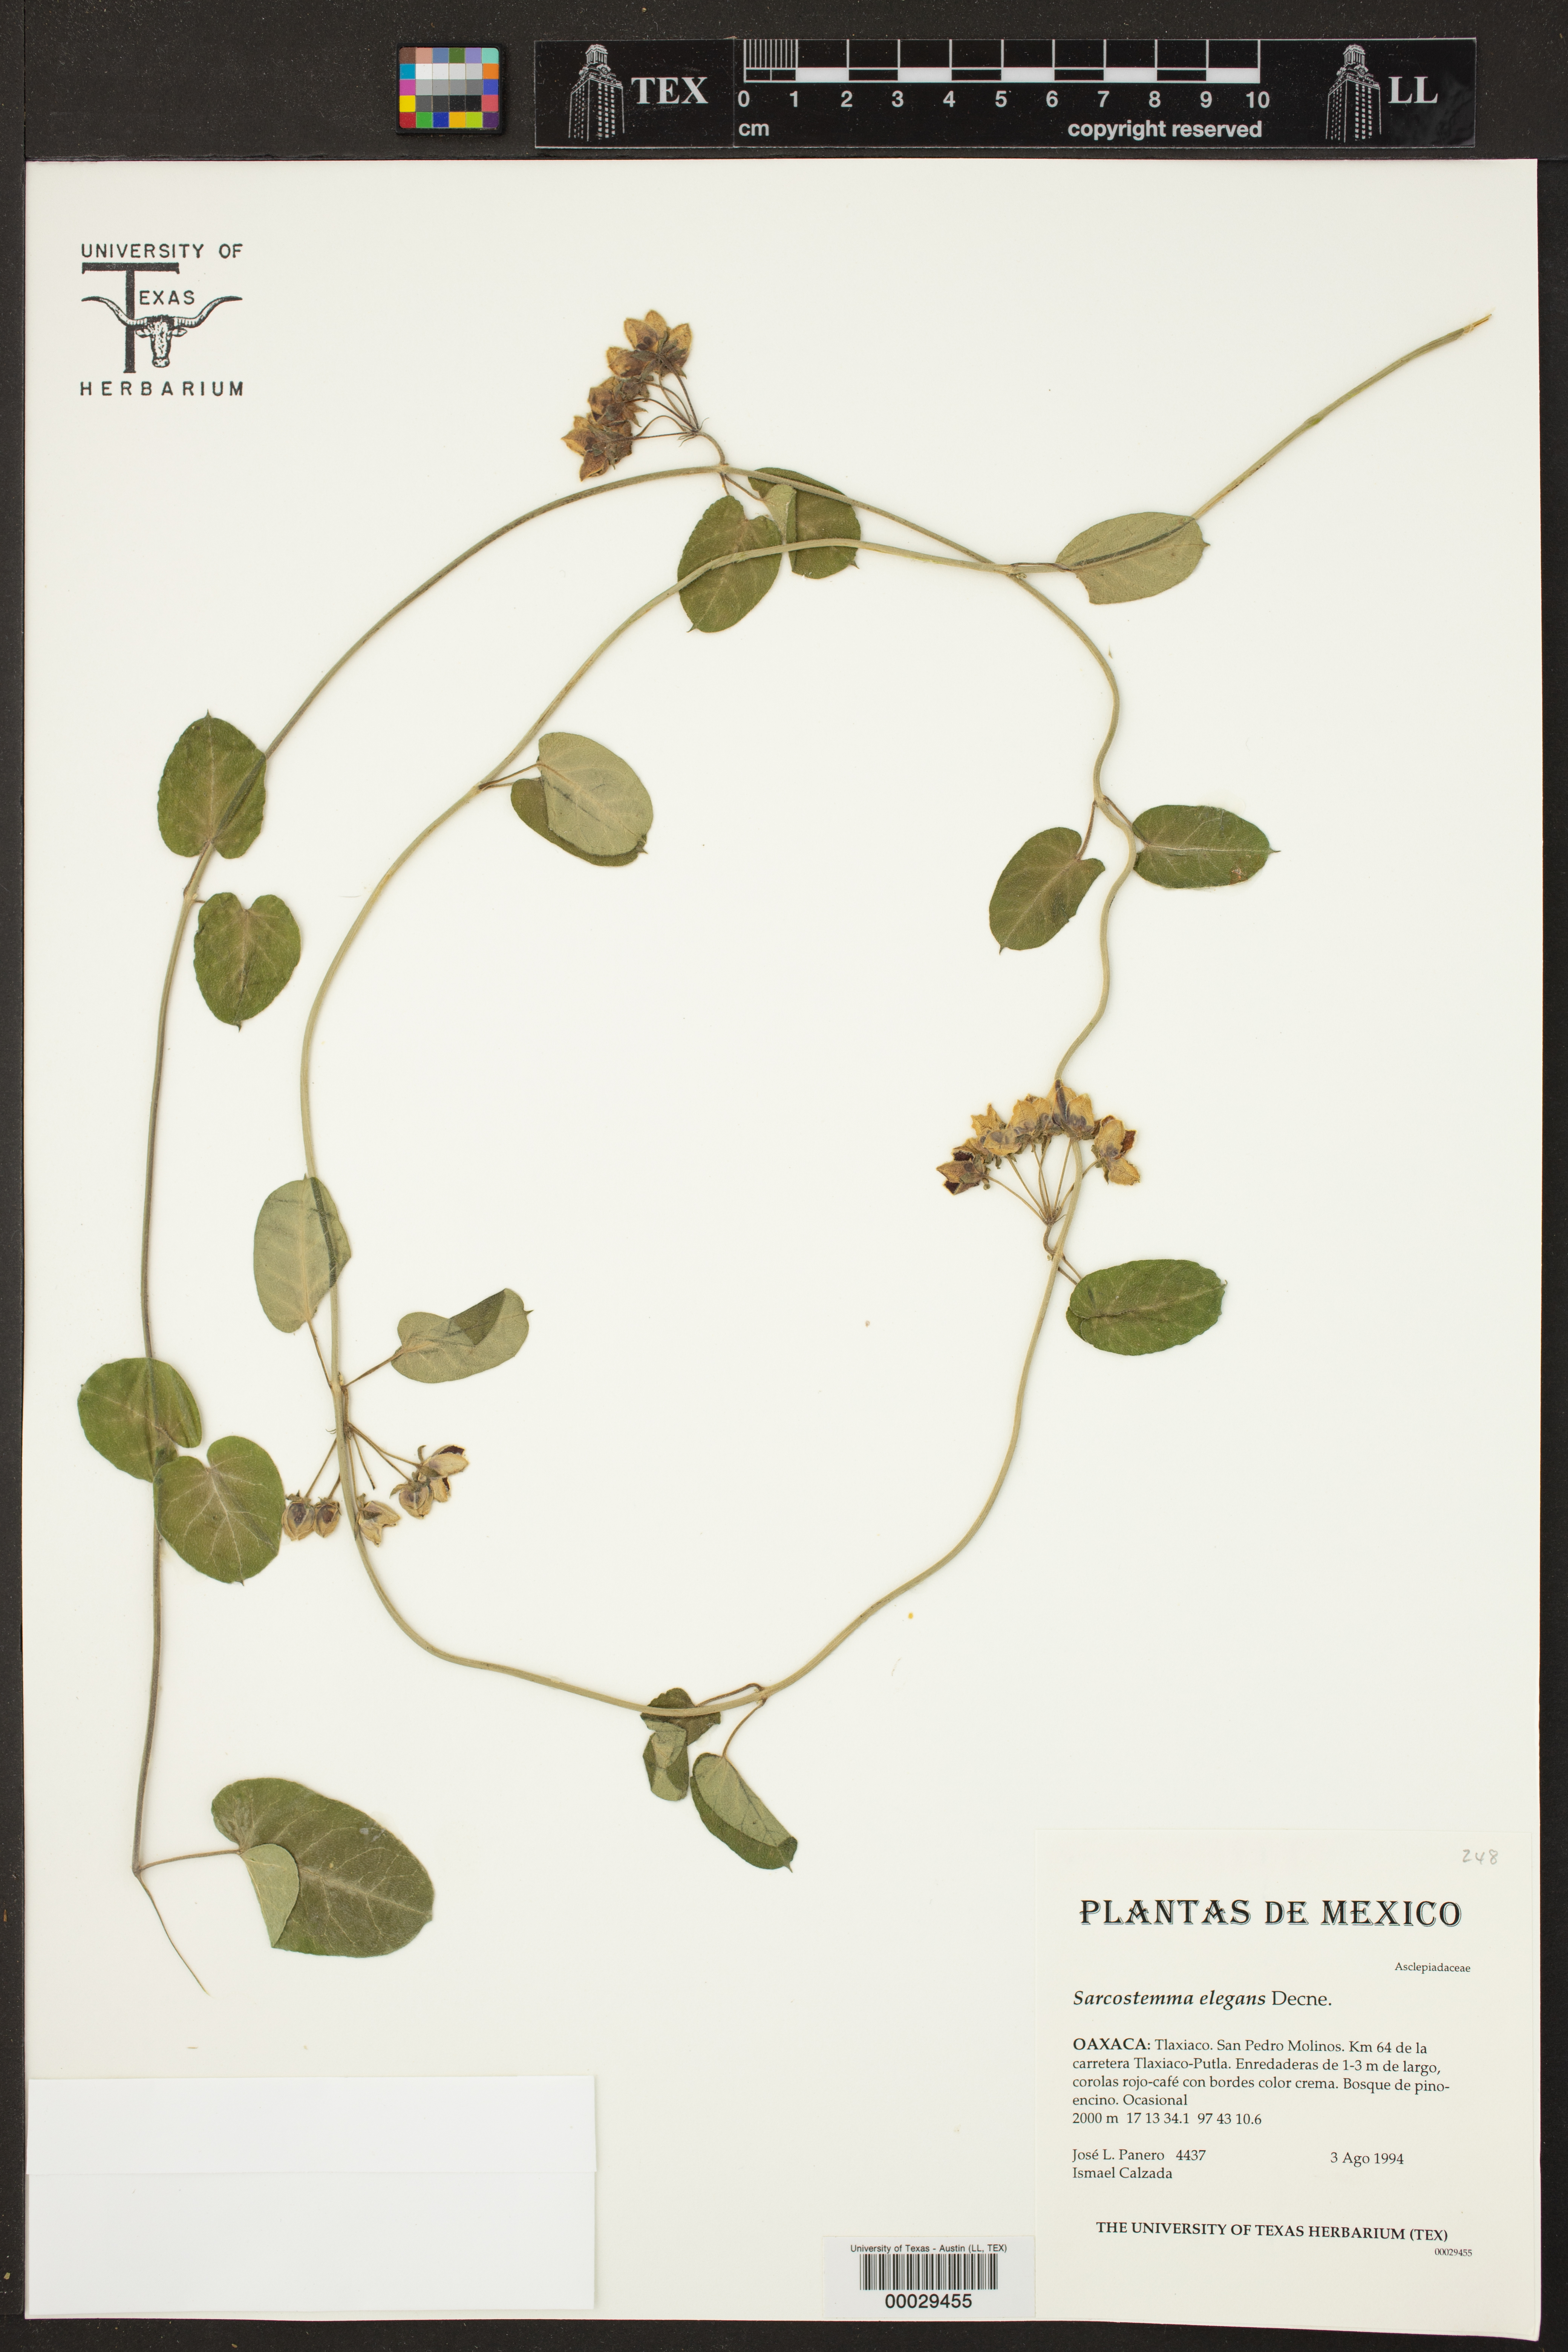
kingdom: Plantae
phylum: Tracheophyta
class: Magnoliopsida
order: Gentianales
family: Apocynaceae
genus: Funastrum
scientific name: Funastrum elegans
